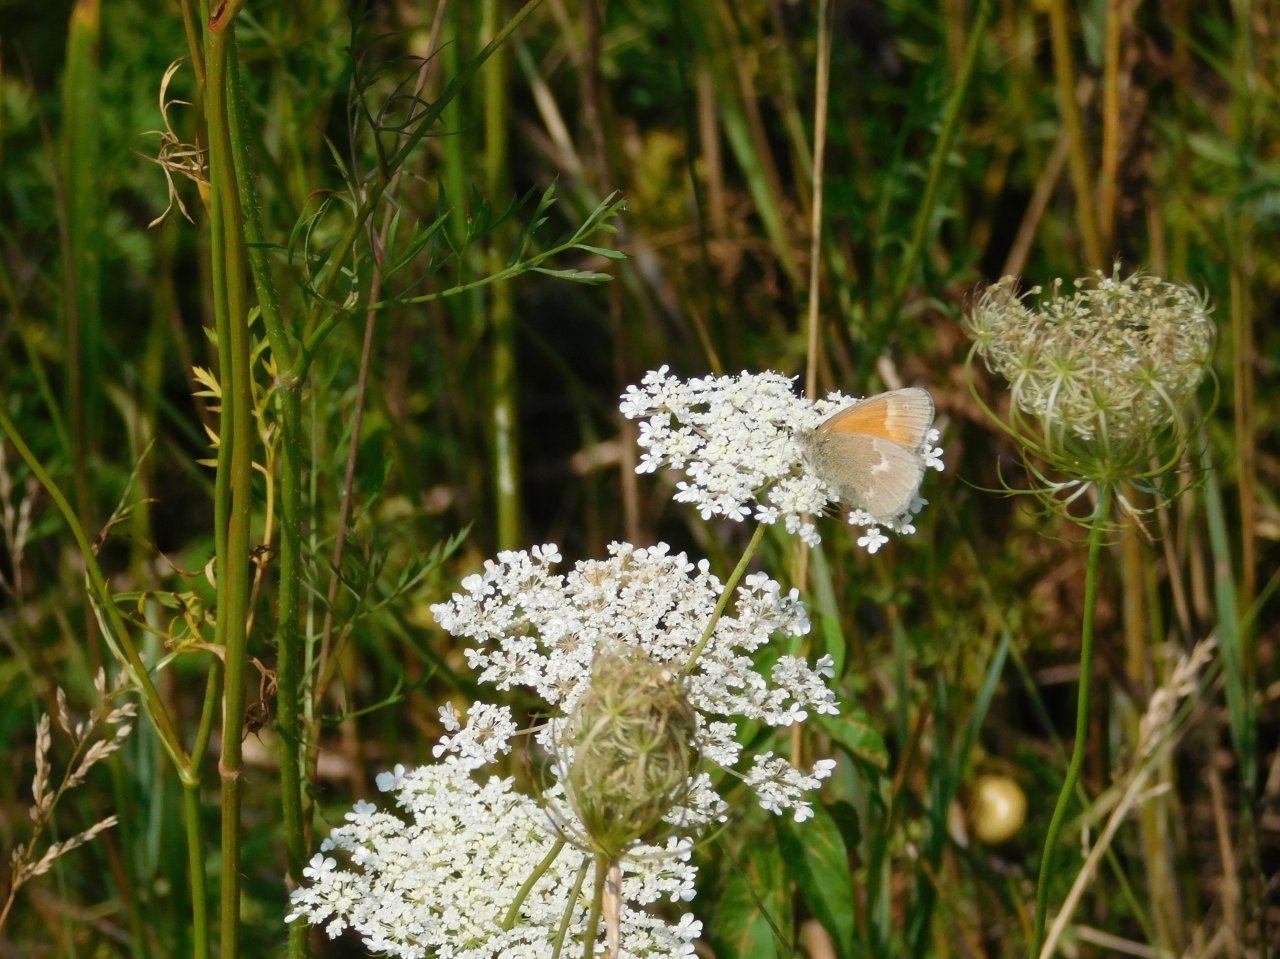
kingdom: Animalia
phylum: Arthropoda
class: Insecta
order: Lepidoptera
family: Nymphalidae
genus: Coenonympha
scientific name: Coenonympha tullia
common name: Large Heath
